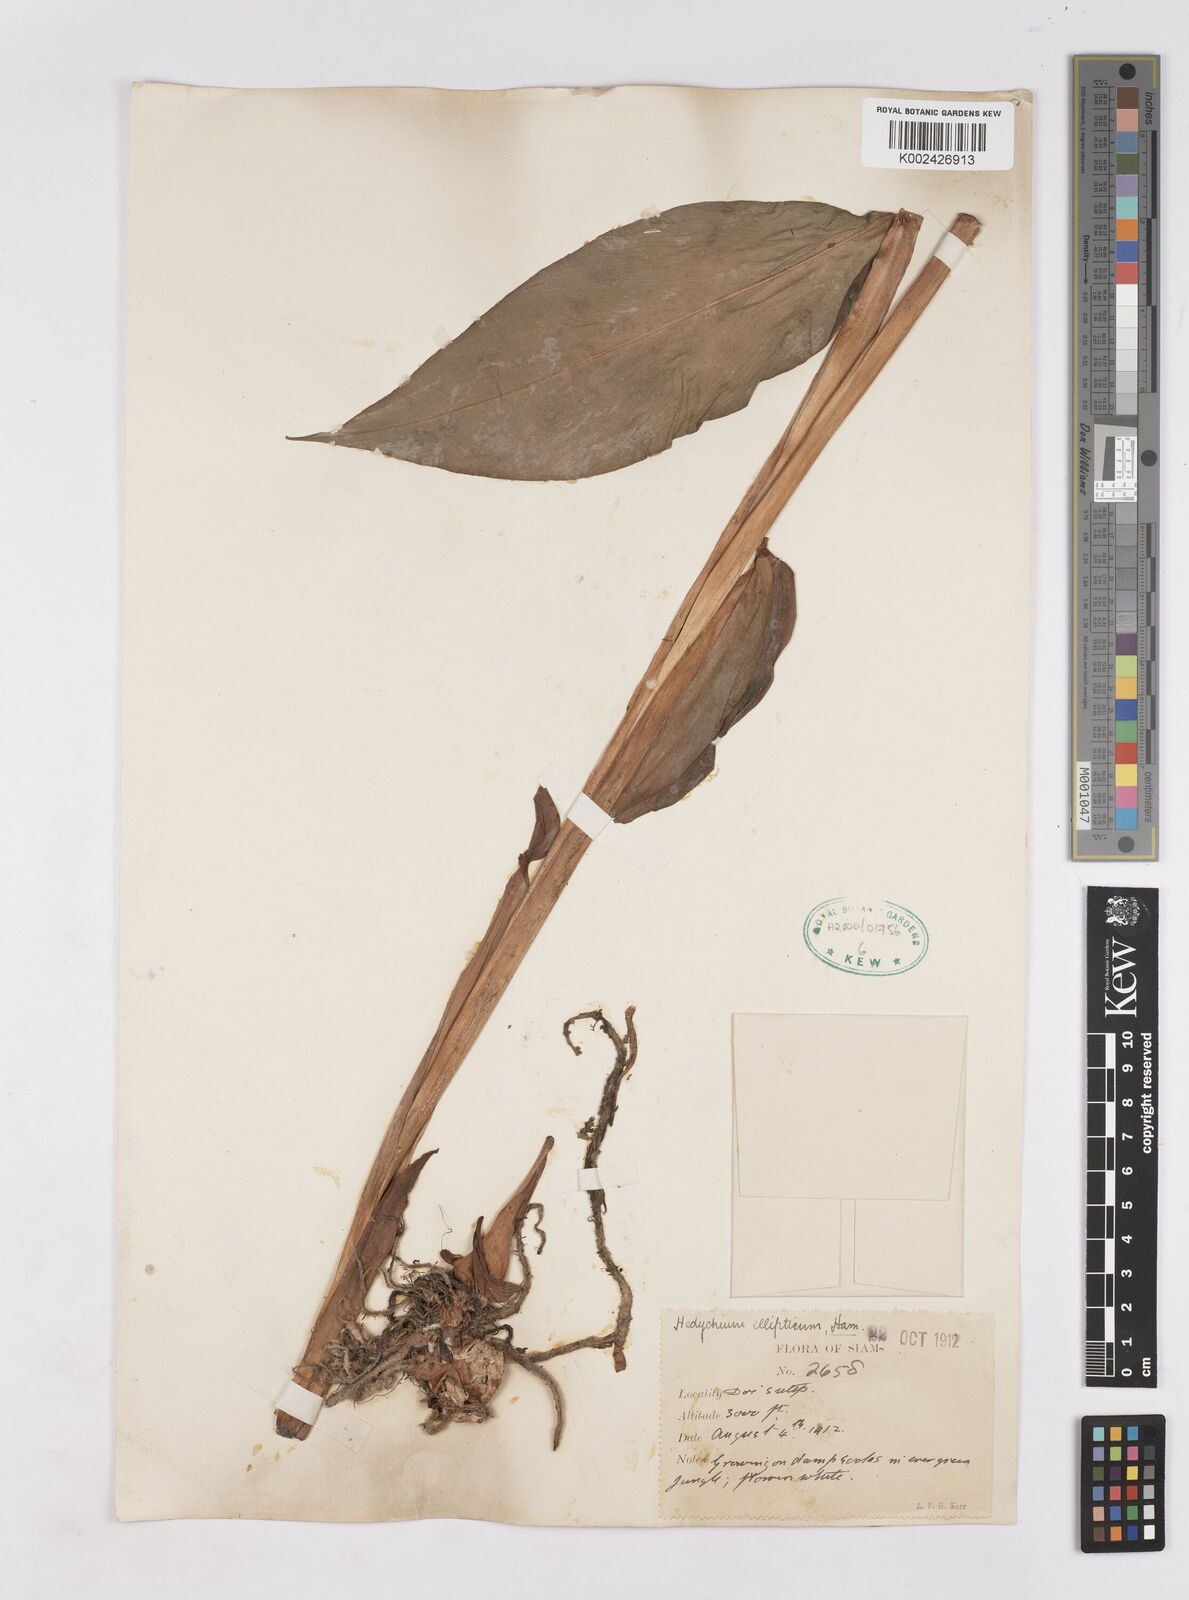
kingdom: Plantae
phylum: Tracheophyta
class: Liliopsida
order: Zingiberales
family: Zingiberaceae
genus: Hedychium
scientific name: Hedychium ellipticum
